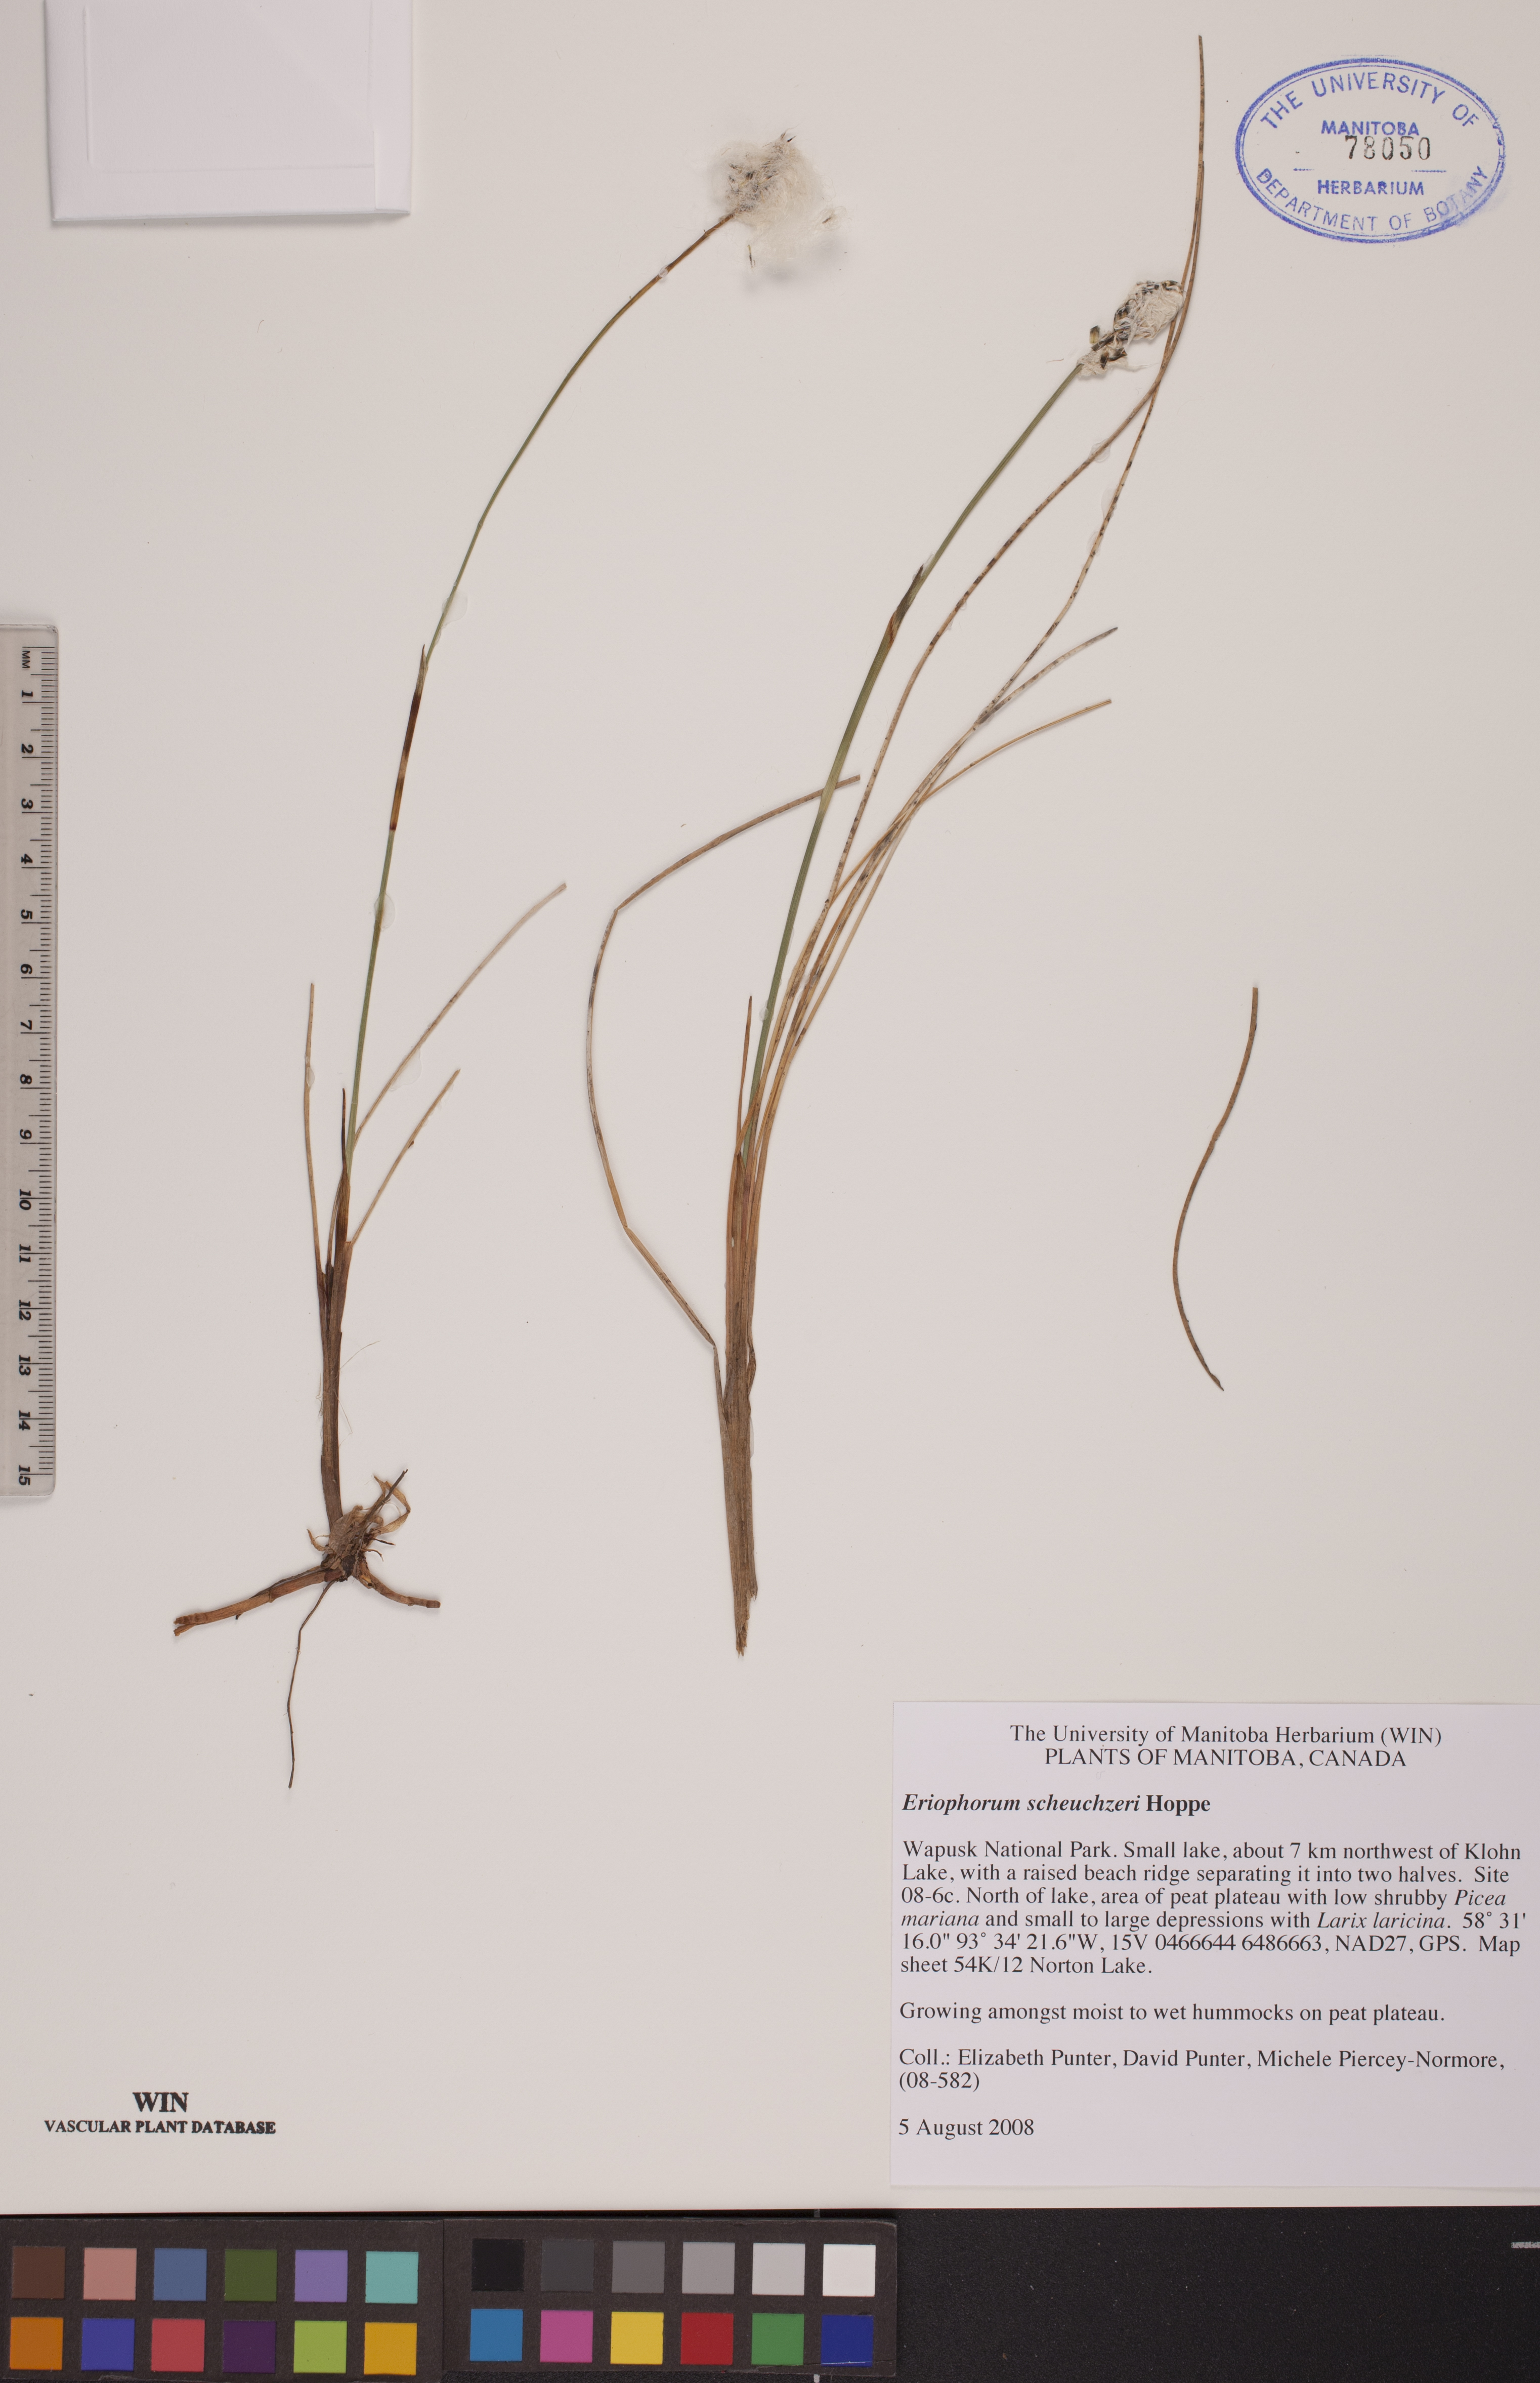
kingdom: Plantae
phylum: Tracheophyta
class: Liliopsida
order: Poales
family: Cyperaceae
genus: Eriophorum
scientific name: Eriophorum scheuchzeri
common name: Scheuchzer's cottongrass
